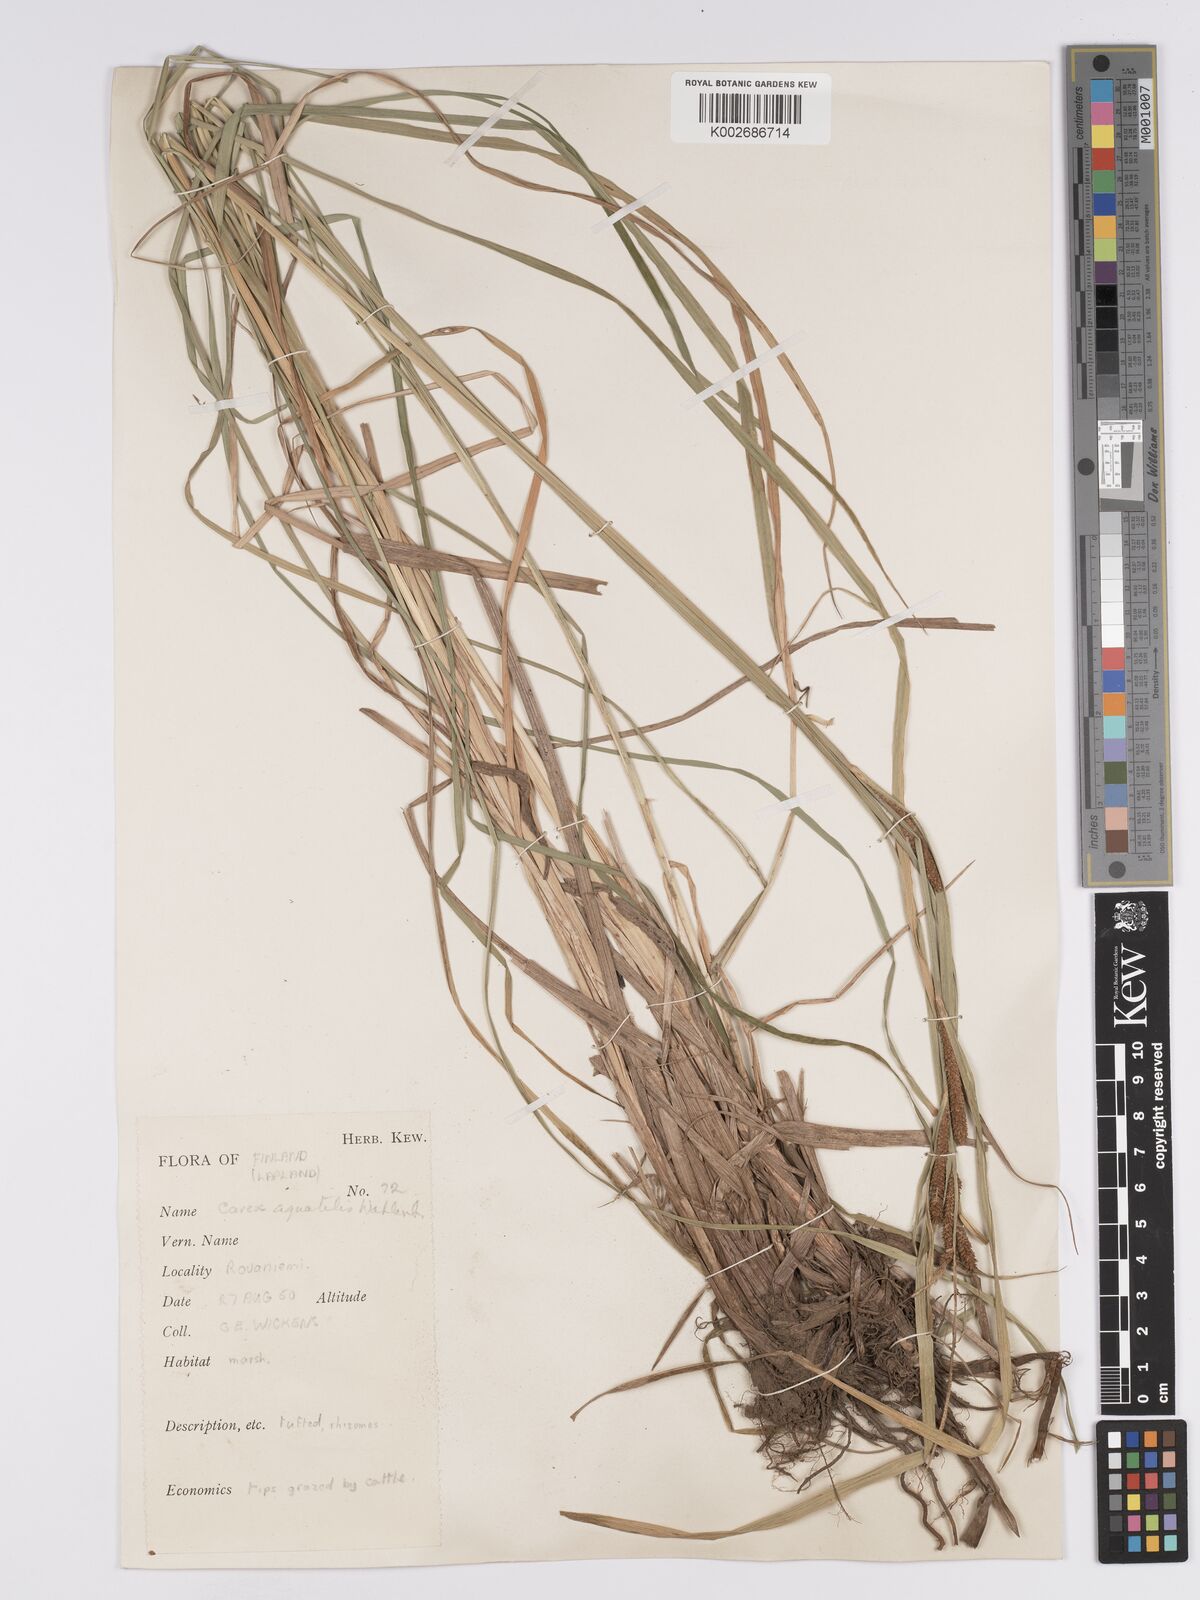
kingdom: Plantae
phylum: Tracheophyta
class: Liliopsida
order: Poales
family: Cyperaceae
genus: Carex
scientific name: Carex aquatilis
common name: Water sedge
